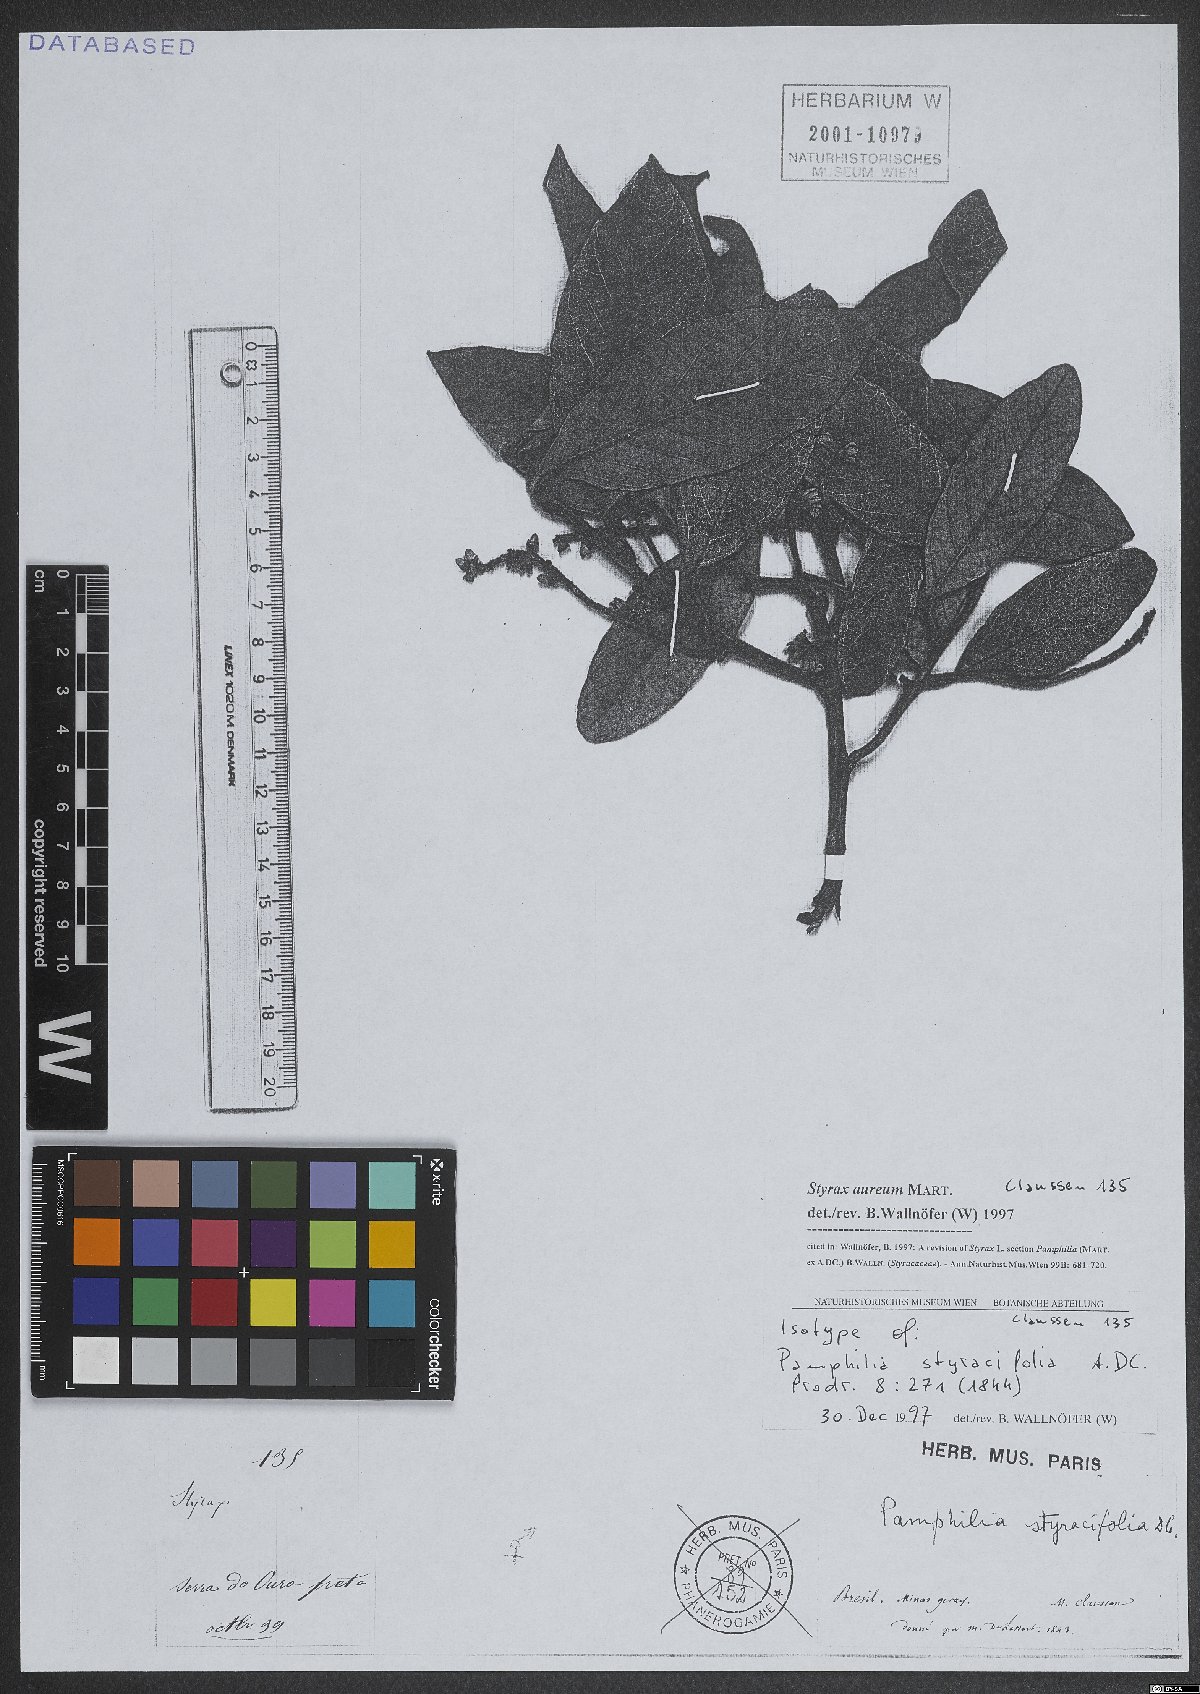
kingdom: Plantae
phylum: Tracheophyta
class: Magnoliopsida
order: Ericales
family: Styracaceae
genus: Styrax
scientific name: Styrax aureus
